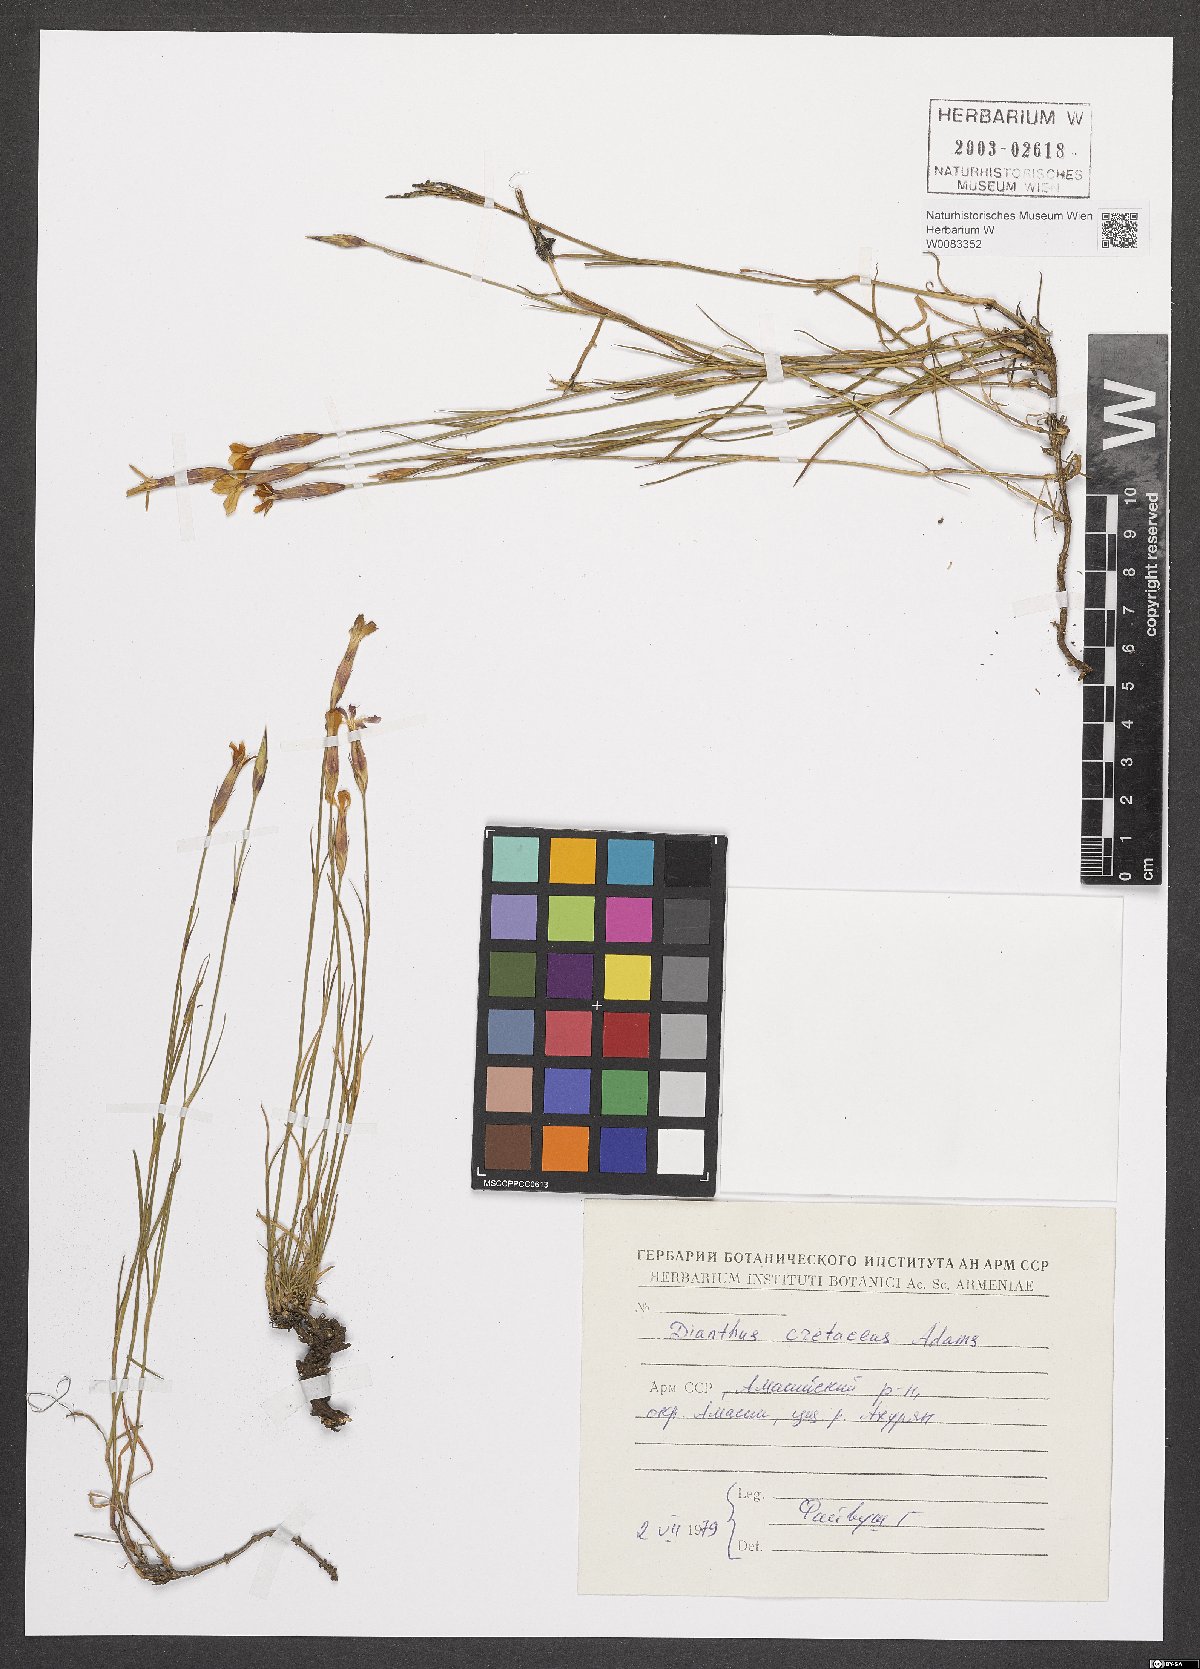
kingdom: Plantae
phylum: Tracheophyta
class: Magnoliopsida
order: Caryophyllales
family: Caryophyllaceae
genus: Dianthus
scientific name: Dianthus cretaceus
